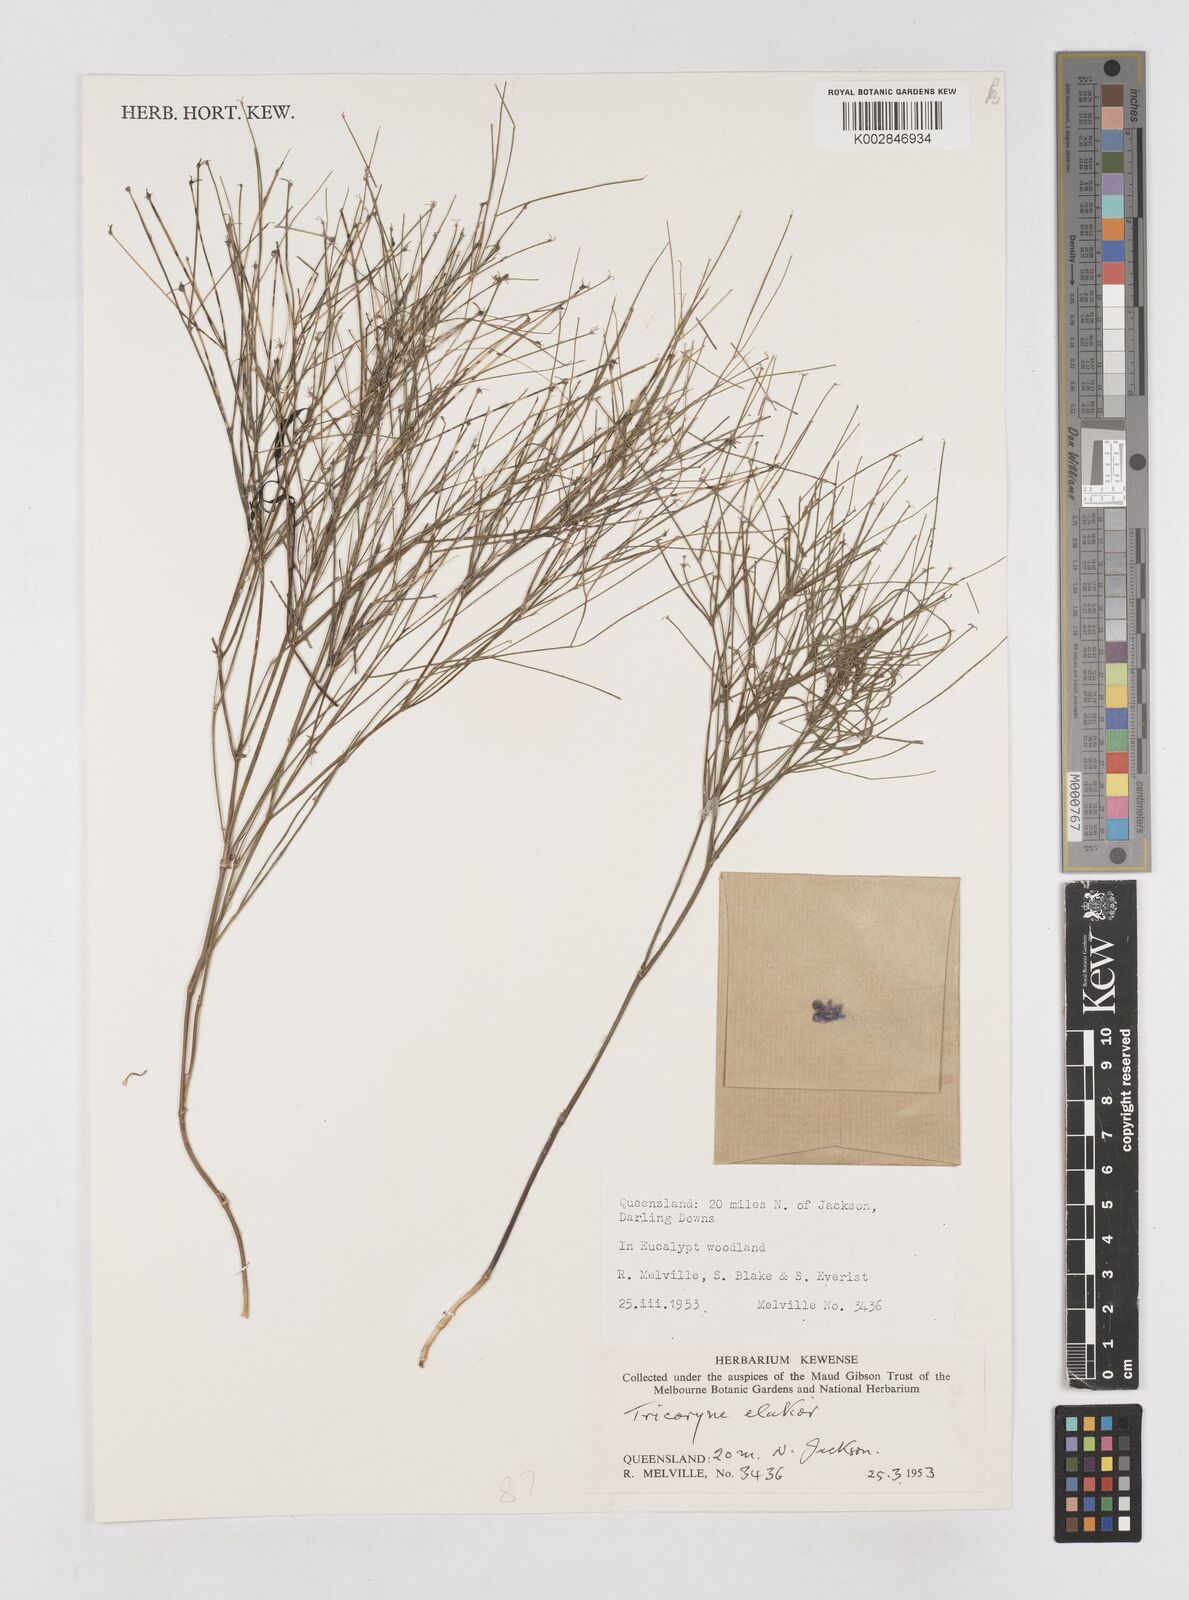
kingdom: Plantae
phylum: Tracheophyta
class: Liliopsida
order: Asparagales
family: Asphodelaceae
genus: Tricoryne
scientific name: Tricoryne elatior
